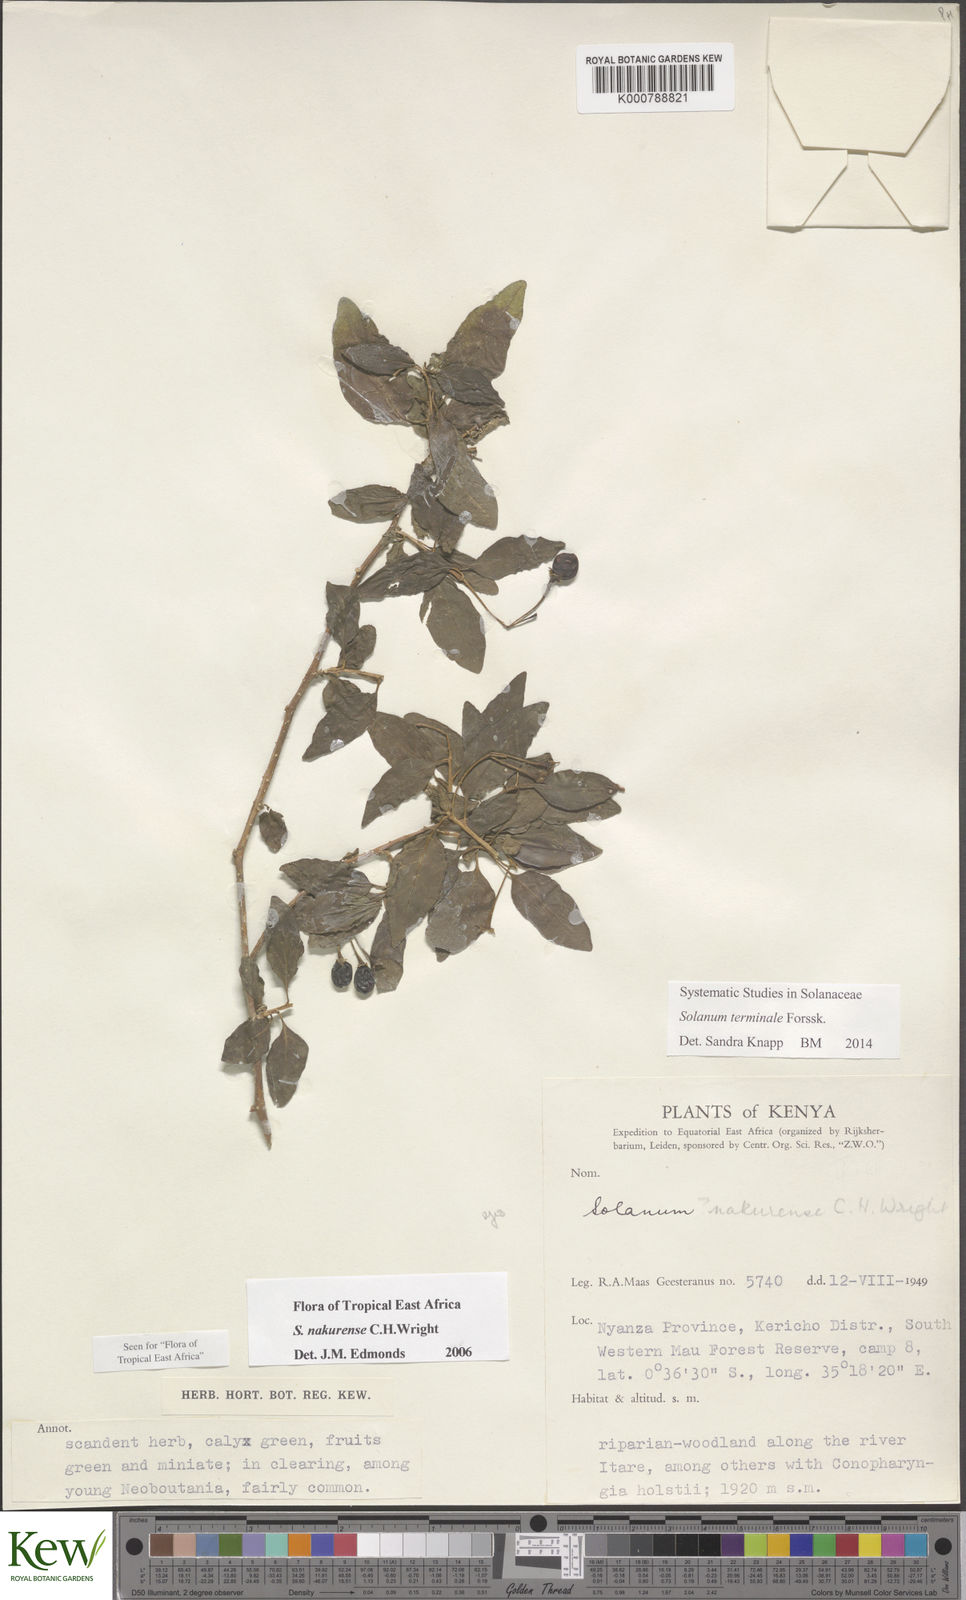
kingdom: Plantae
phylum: Tracheophyta
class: Magnoliopsida
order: Solanales
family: Solanaceae
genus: Solanum
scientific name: Solanum terminale
